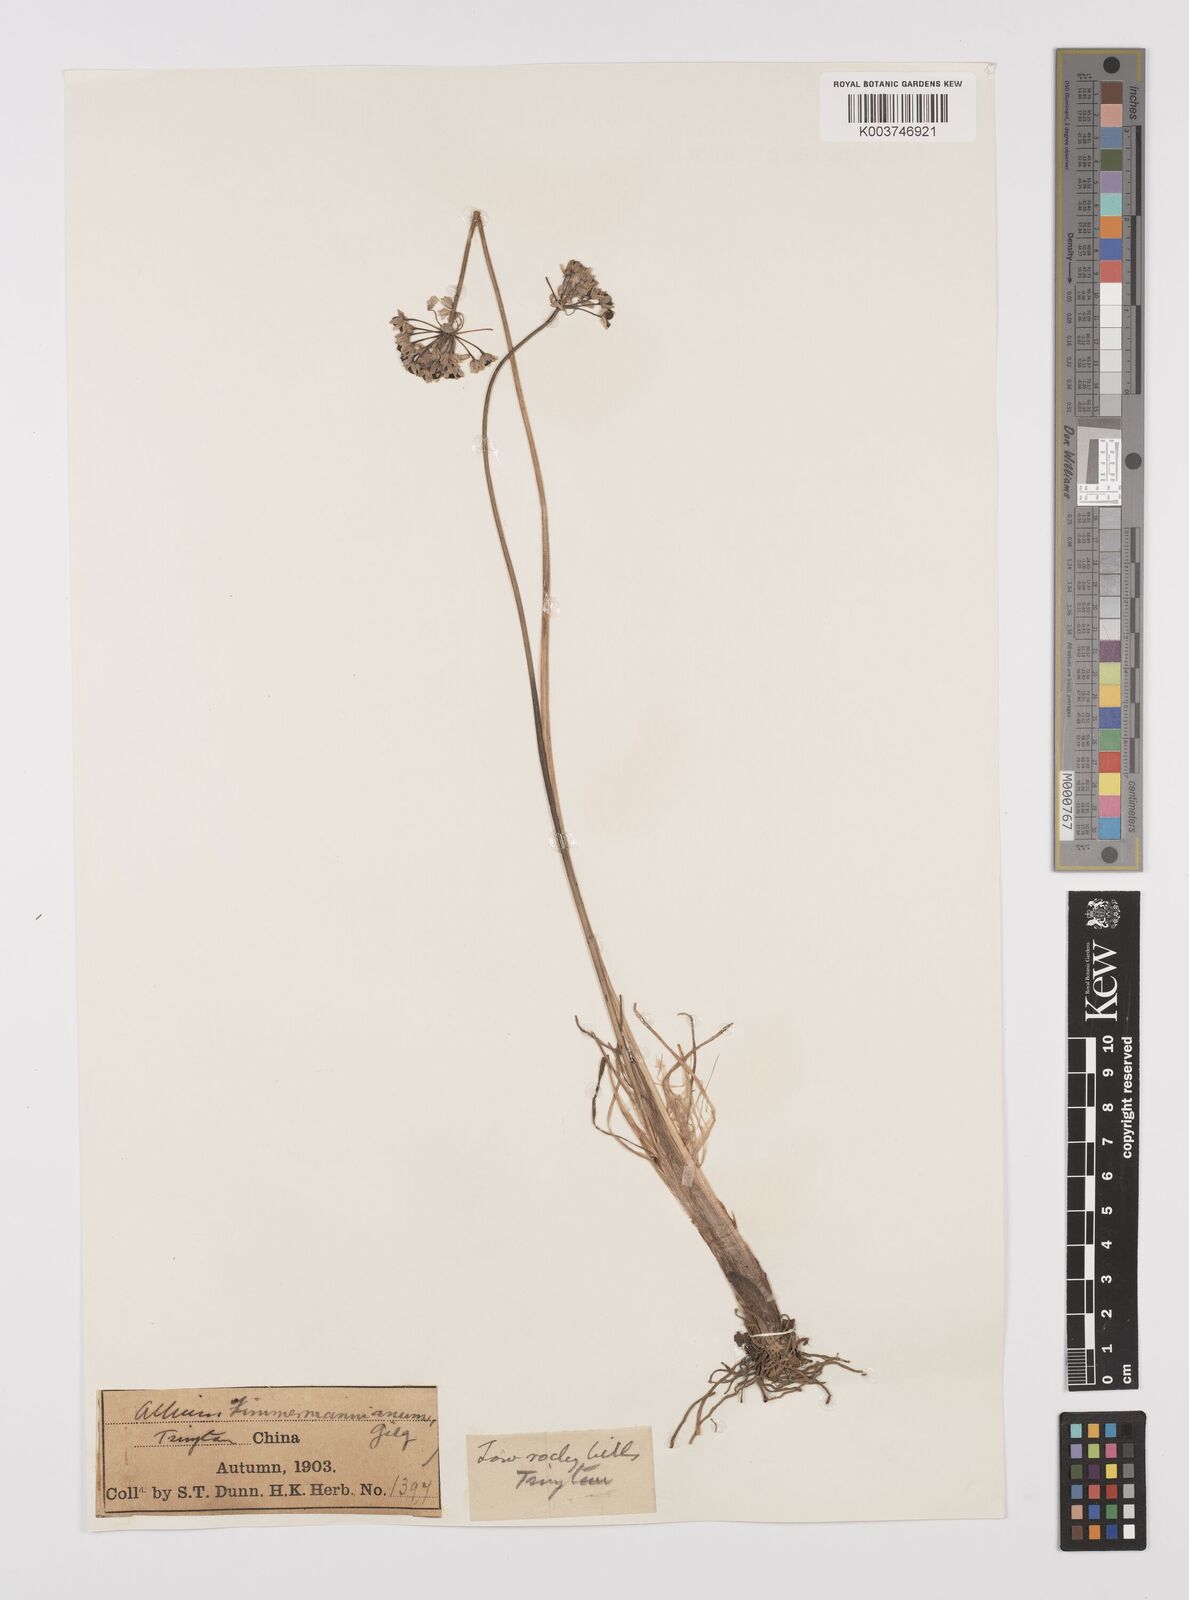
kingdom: Plantae
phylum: Tracheophyta
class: Liliopsida
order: Asparagales
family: Amaryllidaceae
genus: Allium
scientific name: Allium anisopodium
